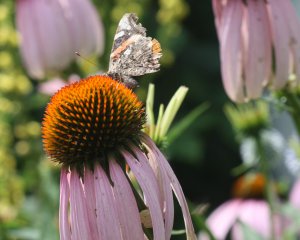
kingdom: Animalia
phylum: Arthropoda
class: Insecta
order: Lepidoptera
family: Nymphalidae
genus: Vanessa
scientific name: Vanessa atalanta
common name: Red Admiral
